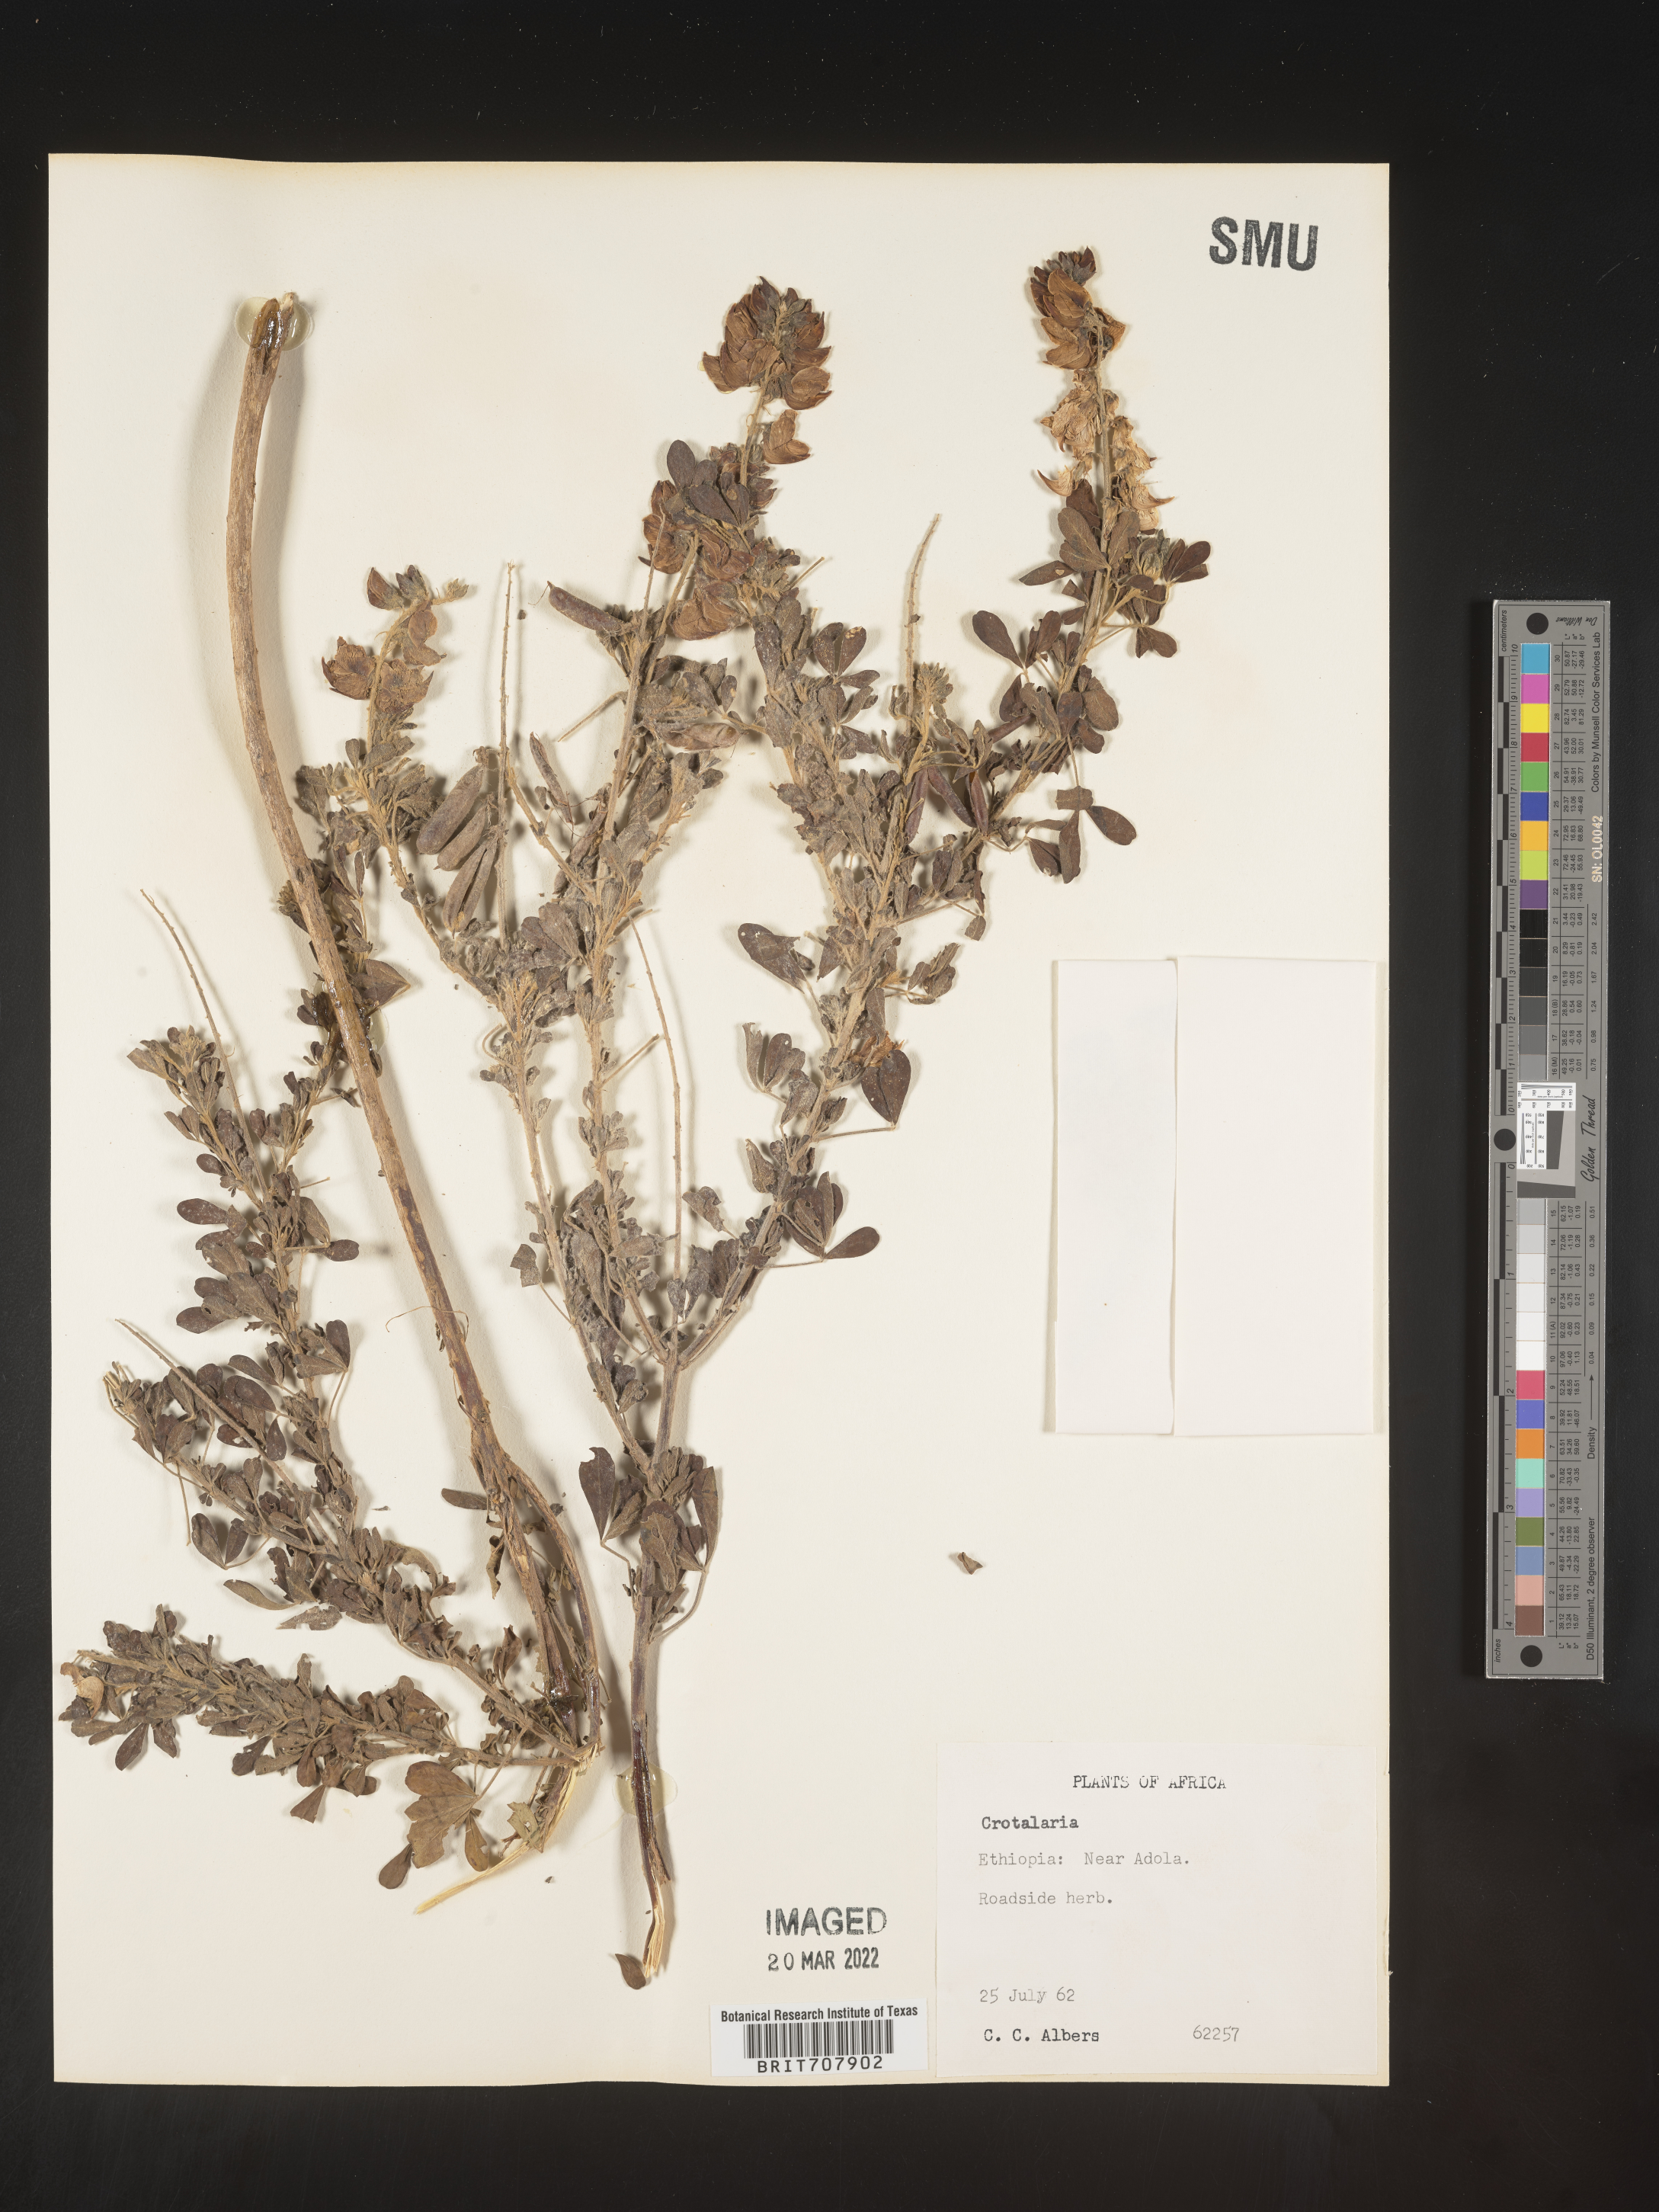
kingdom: Plantae
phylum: Tracheophyta
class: Magnoliopsida
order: Fabales
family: Fabaceae
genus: Crotalaria
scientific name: Crotalaria
